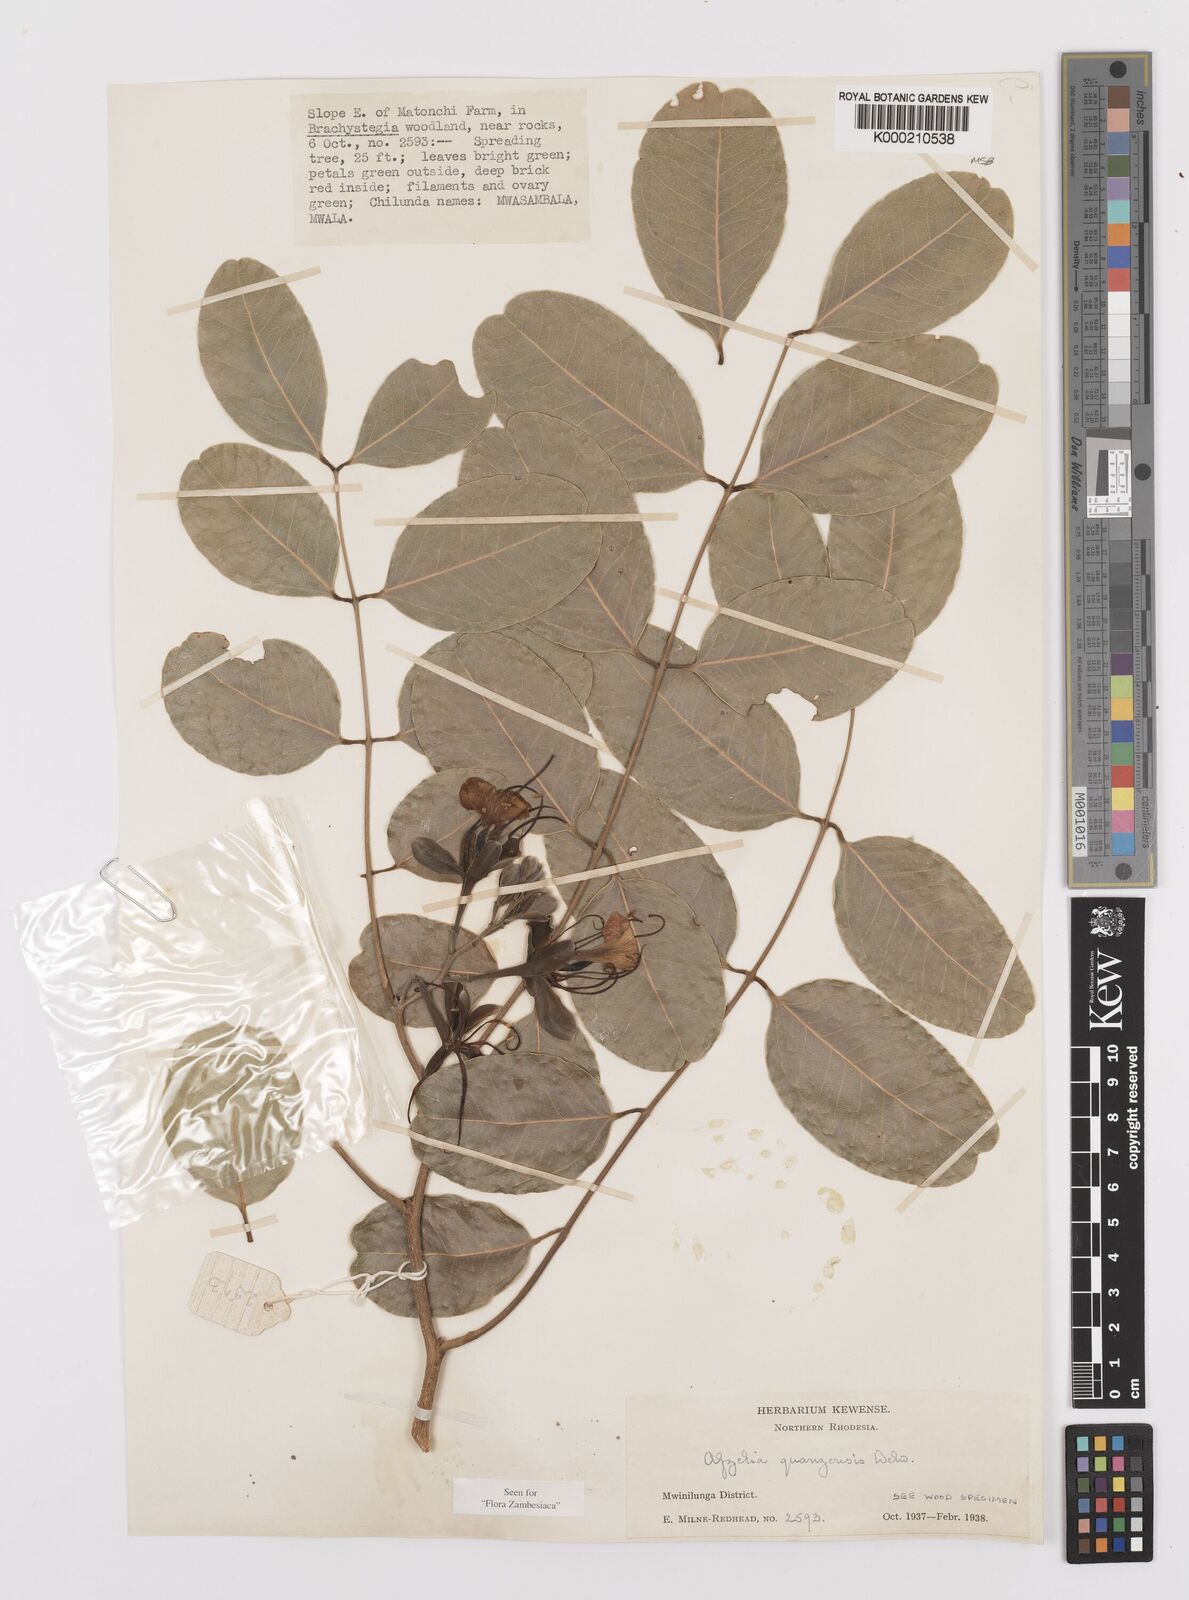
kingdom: Plantae
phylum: Tracheophyta
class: Magnoliopsida
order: Fabales
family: Fabaceae
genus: Afzelia
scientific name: Afzelia quanzensis
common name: Pod mahogany
